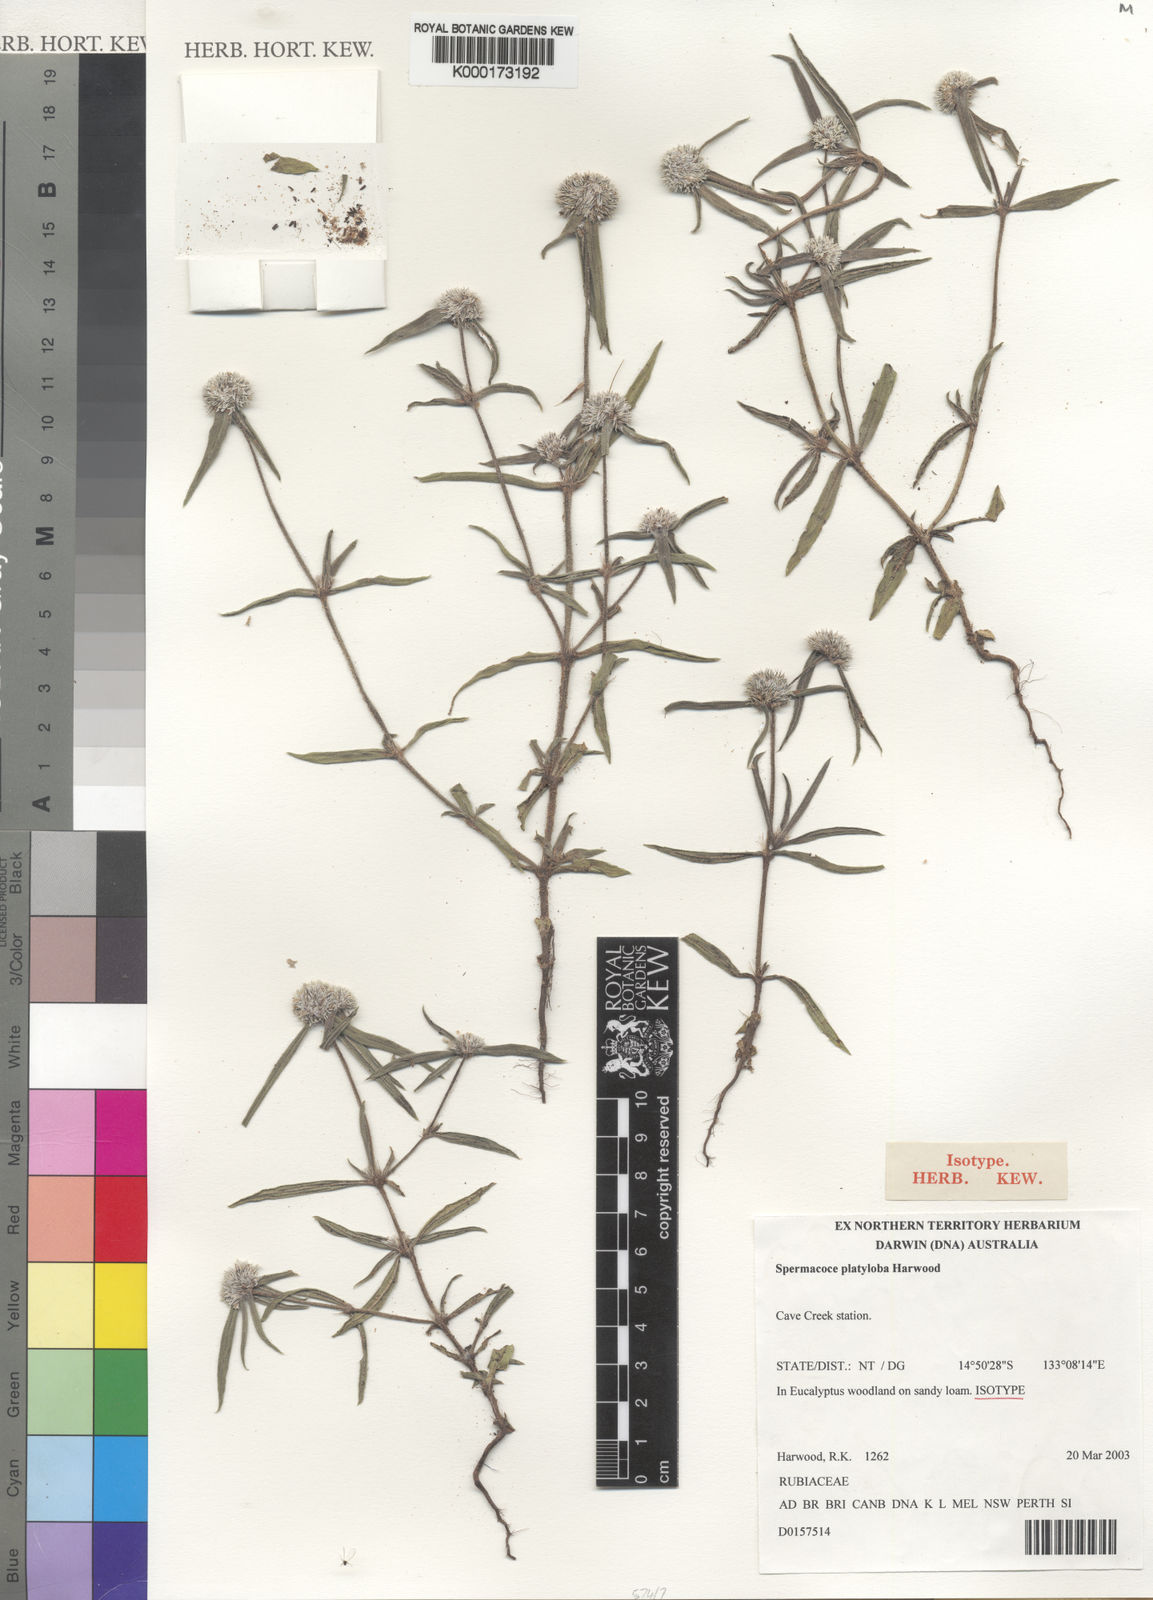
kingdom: Plantae
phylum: Tracheophyta
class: Magnoliopsida
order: Gentianales
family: Rubiaceae
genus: Spermacoce
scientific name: Spermacoce platyloba
